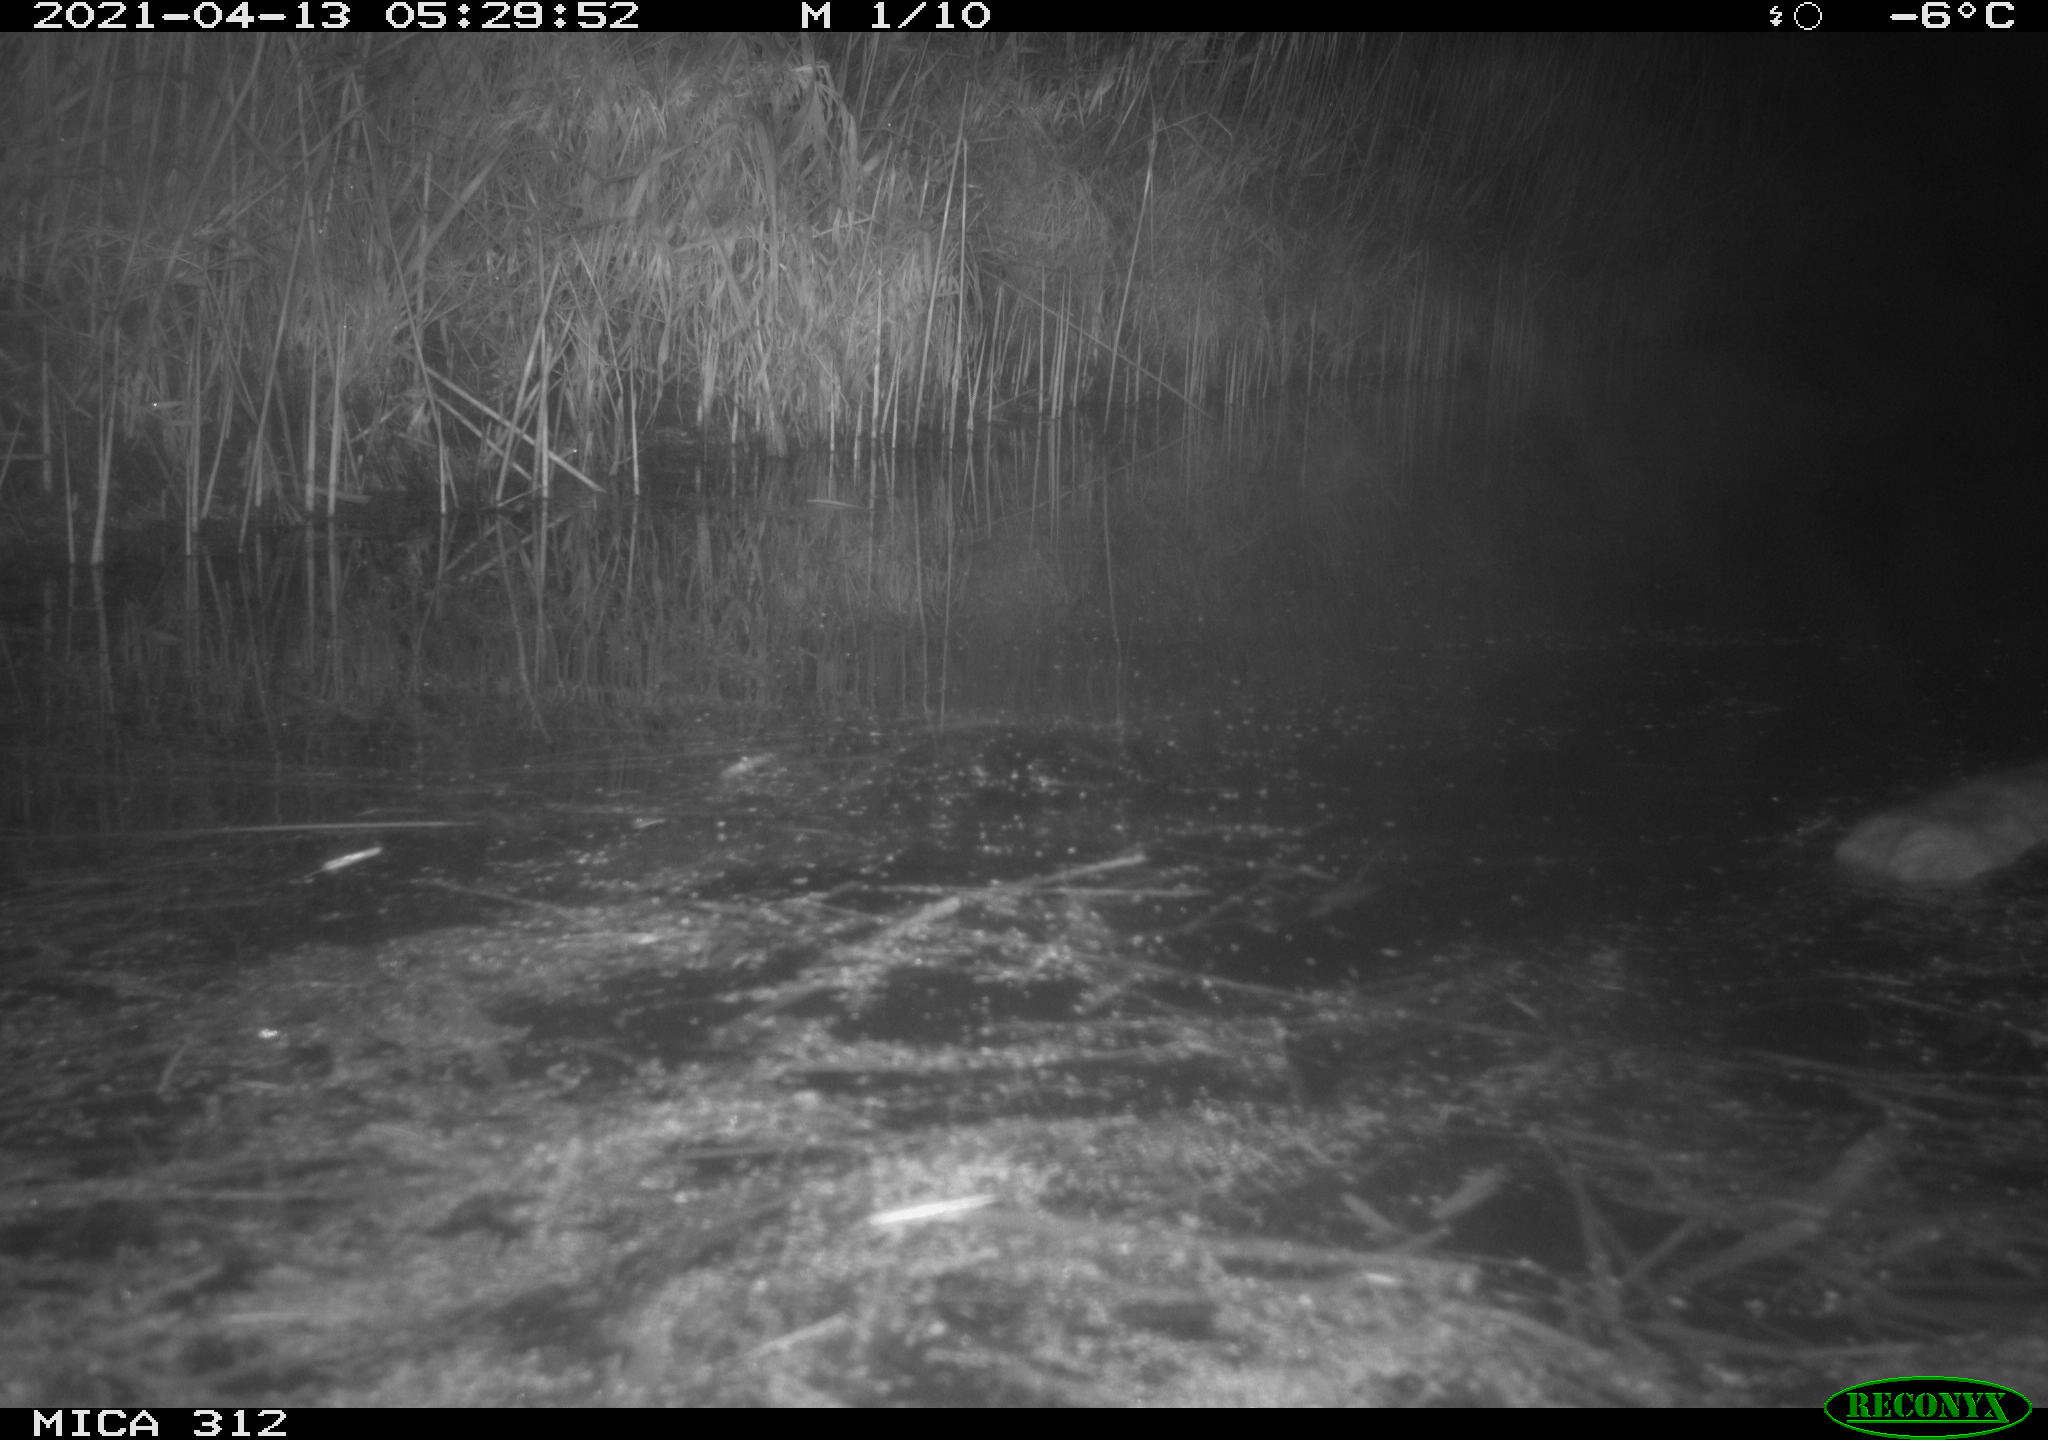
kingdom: Animalia
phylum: Chordata
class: Mammalia
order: Rodentia
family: Cricetidae
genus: Ondatra
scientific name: Ondatra zibethicus
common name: Muskrat
